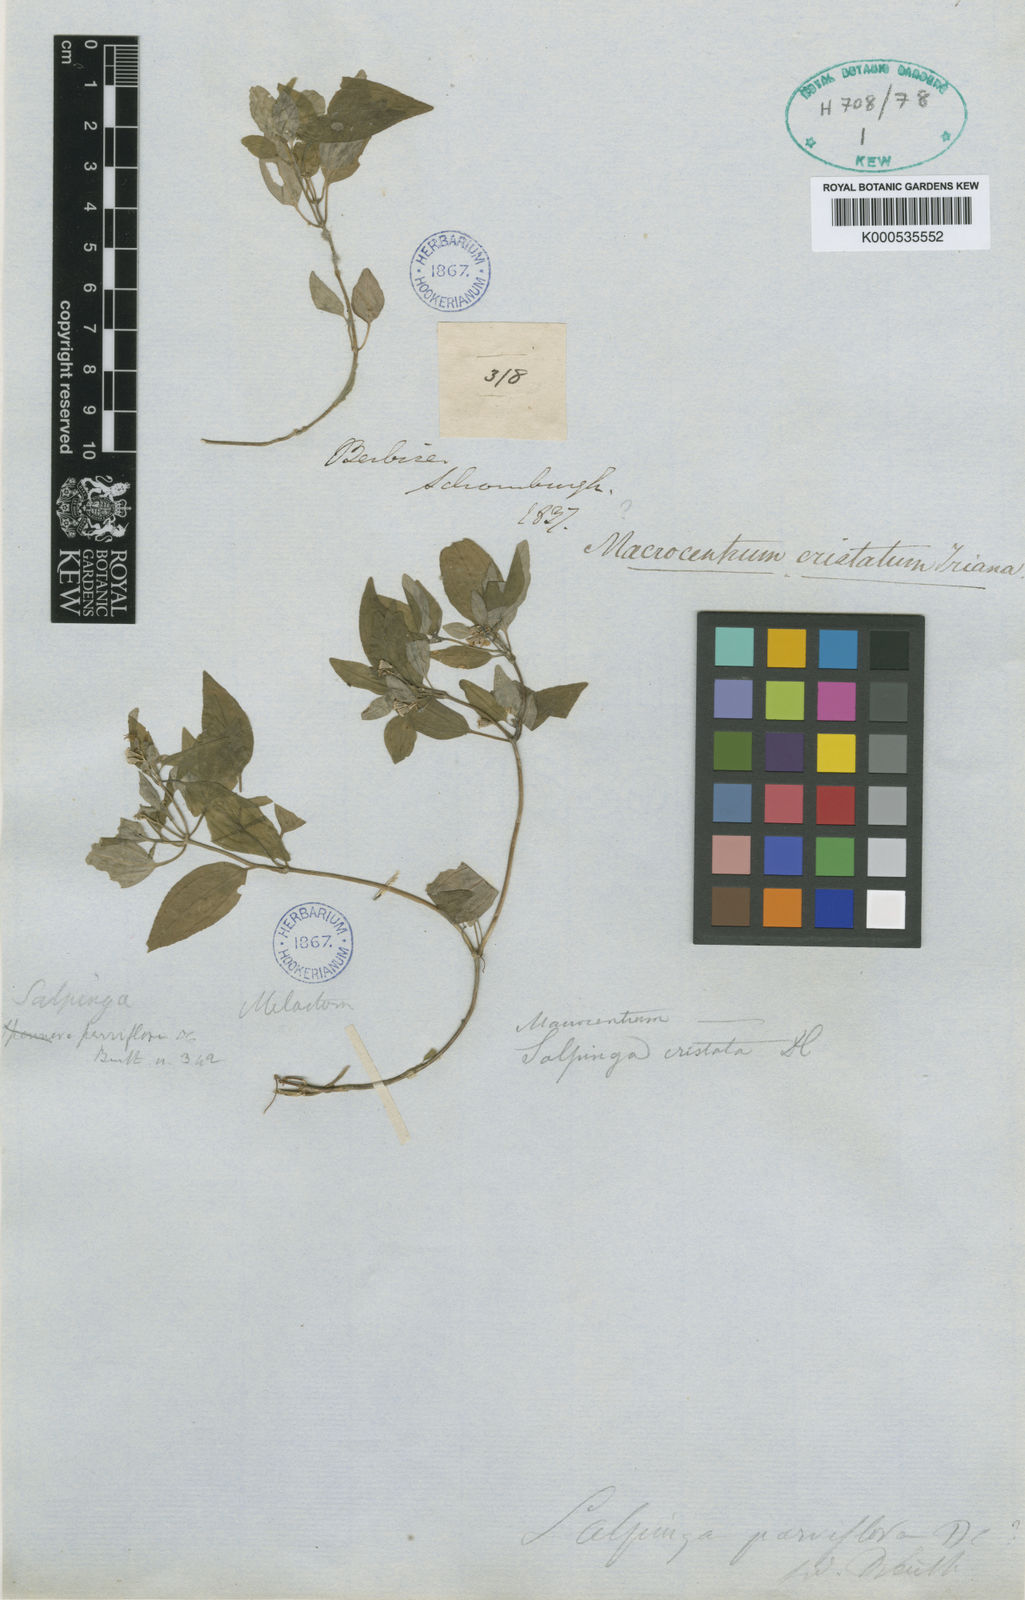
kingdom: Plantae
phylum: Tracheophyta
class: Magnoliopsida
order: Myrtales
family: Melastomataceae
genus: Macrocentrum
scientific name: Macrocentrum cristatum
